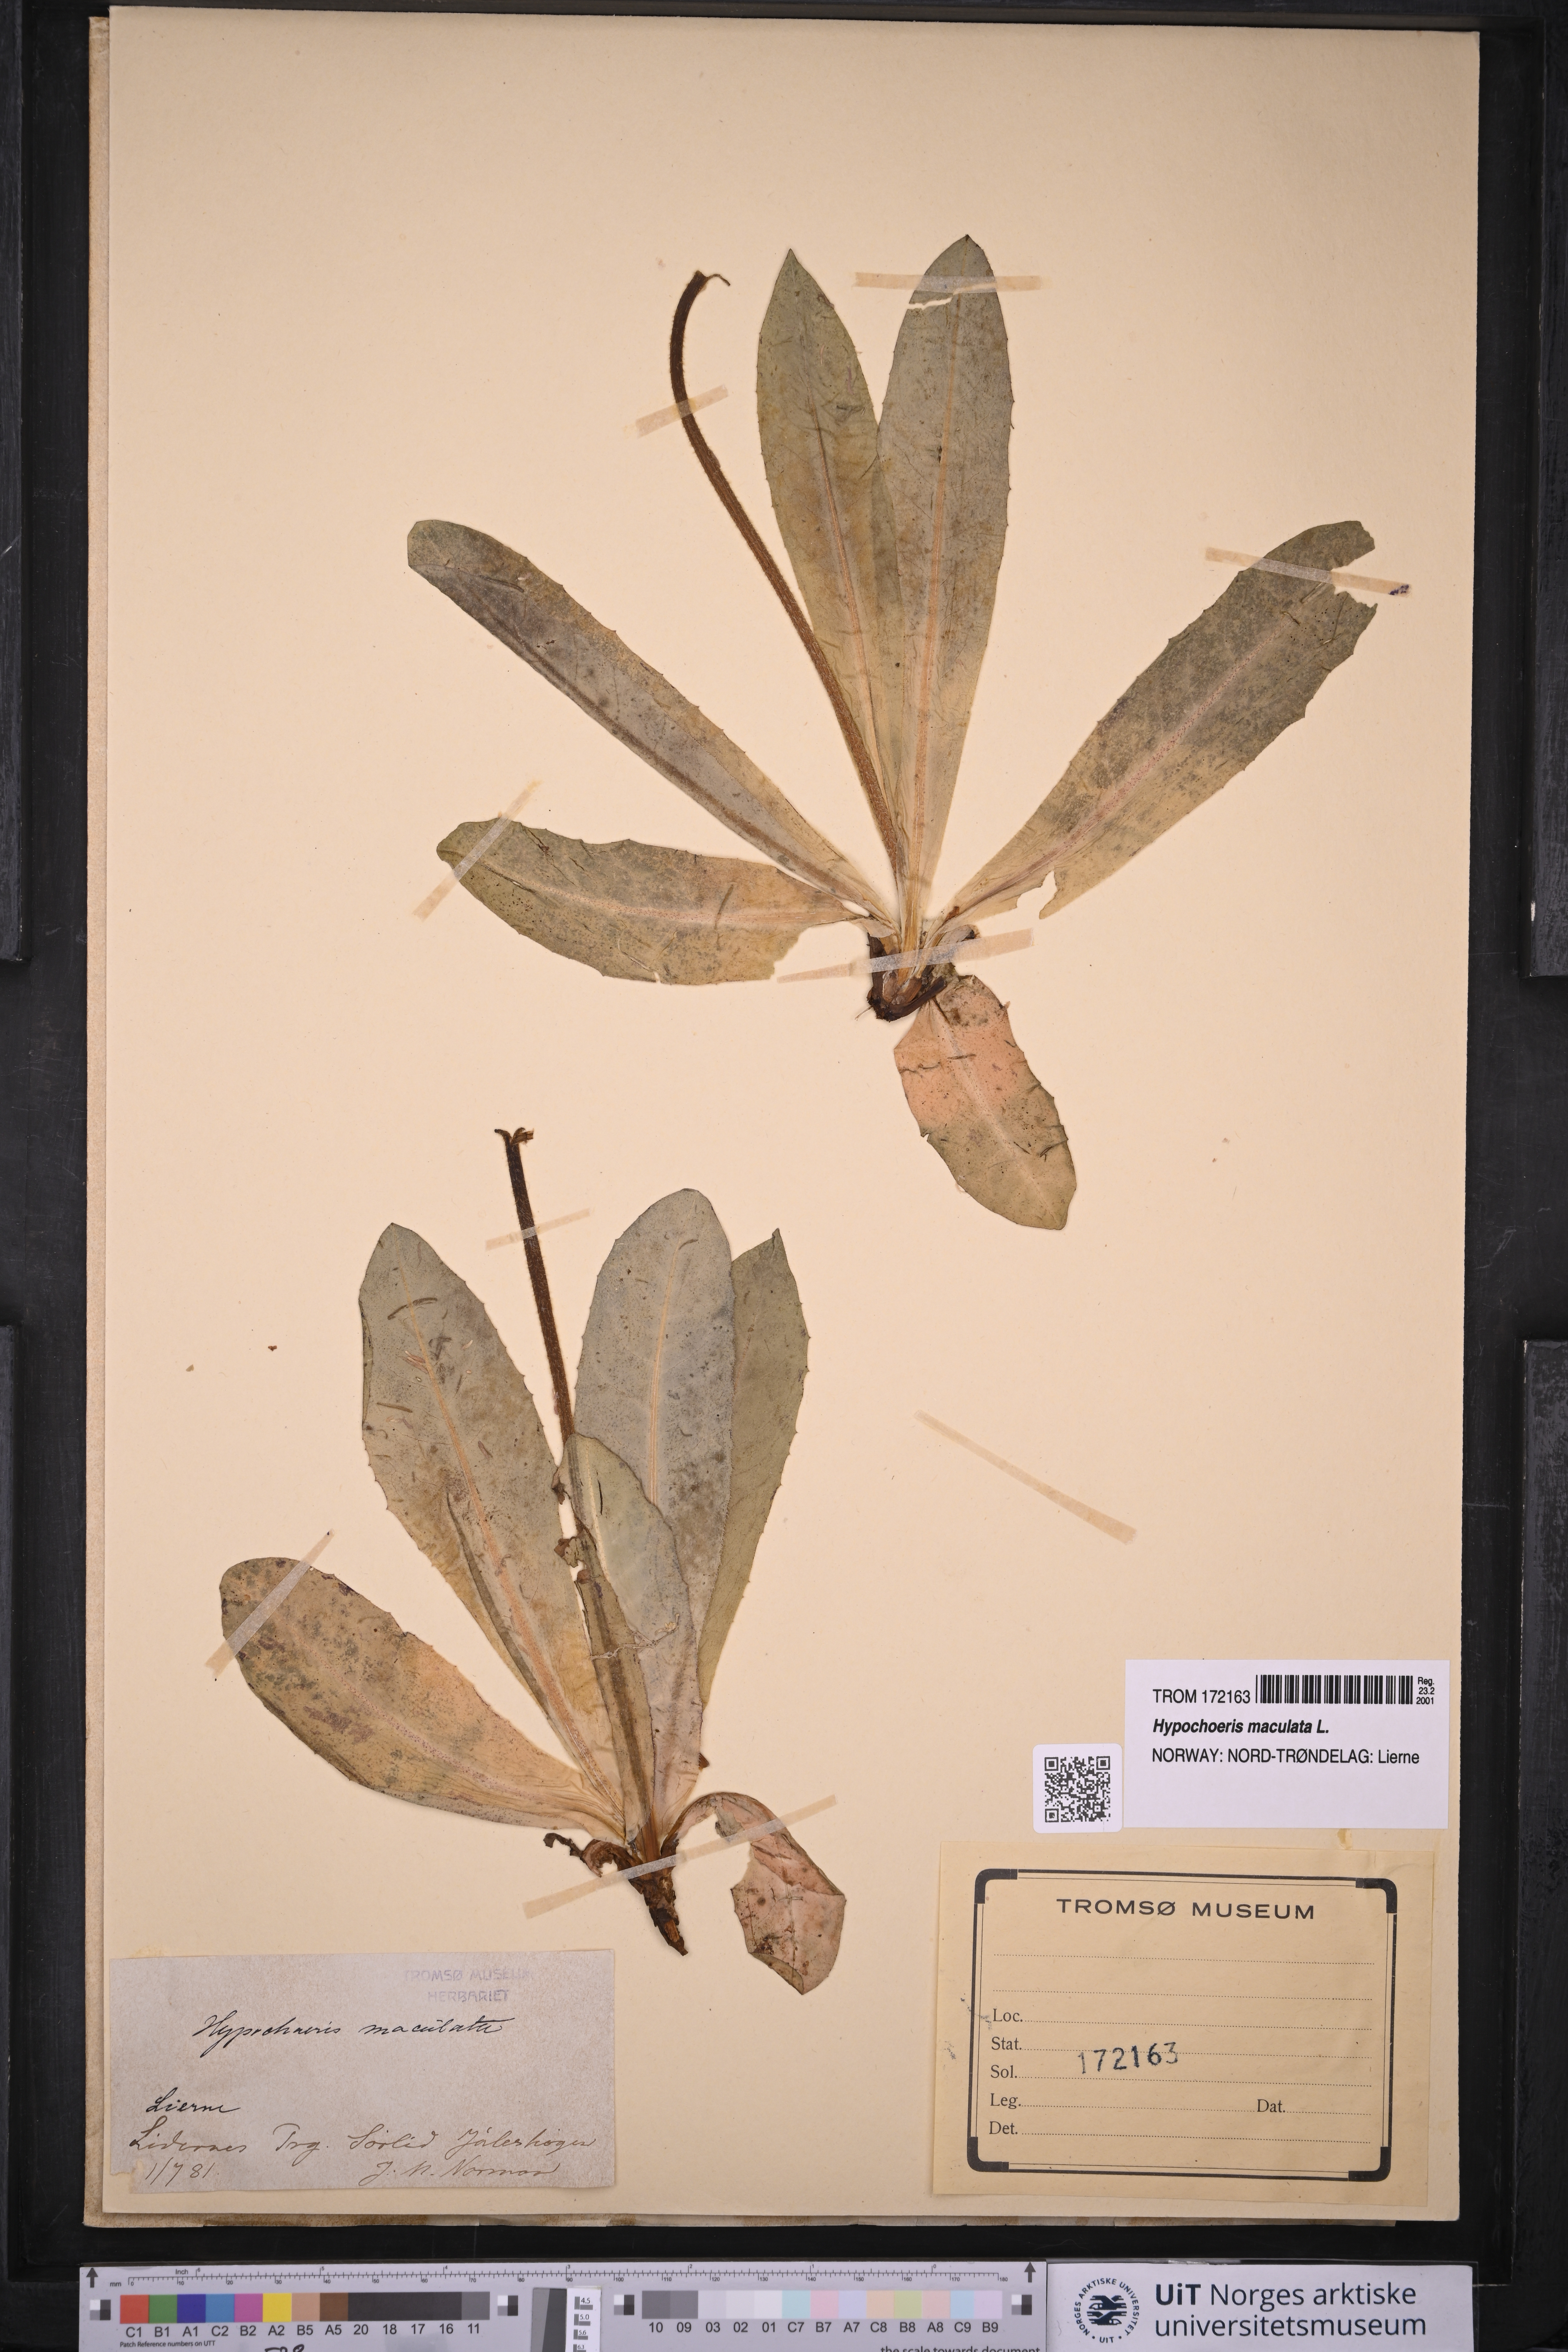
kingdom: Plantae
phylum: Tracheophyta
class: Magnoliopsida
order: Asterales
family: Asteraceae
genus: Trommsdorffia
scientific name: Trommsdorffia maculata
